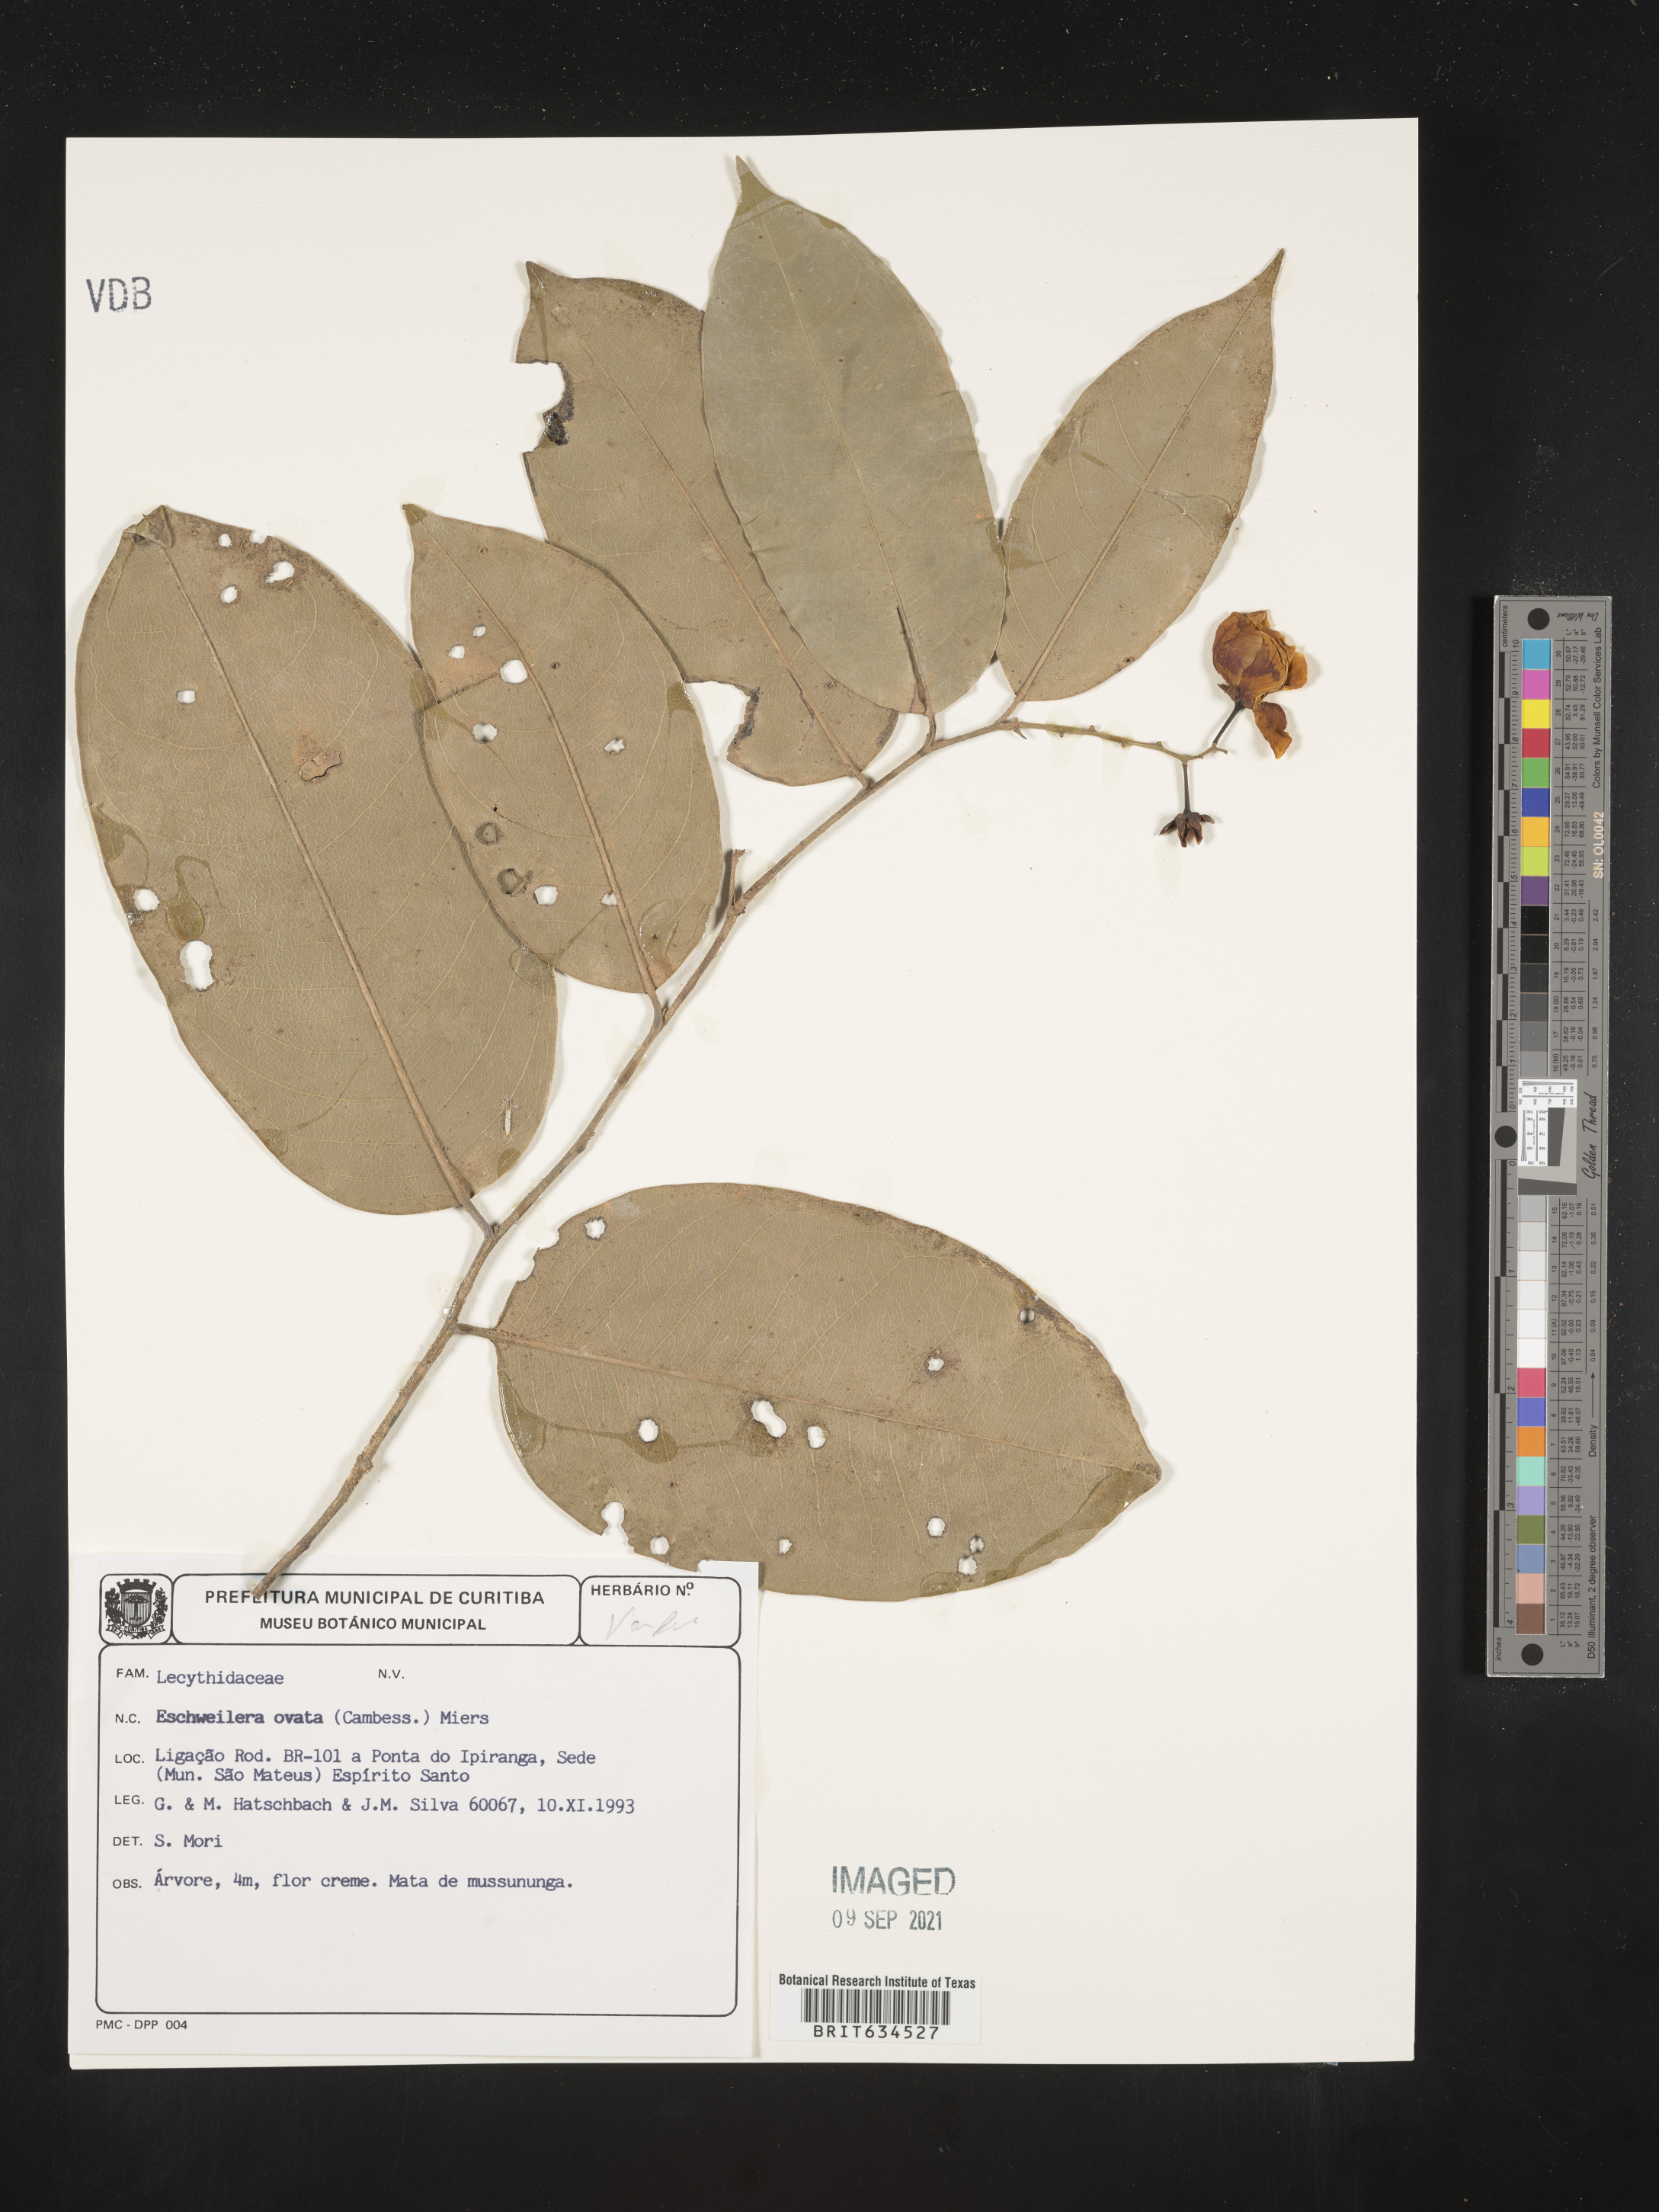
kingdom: Plantae
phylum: Tracheophyta
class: Magnoliopsida
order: Ericales
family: Lecythidaceae
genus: Eschweilera
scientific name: Eschweilera
